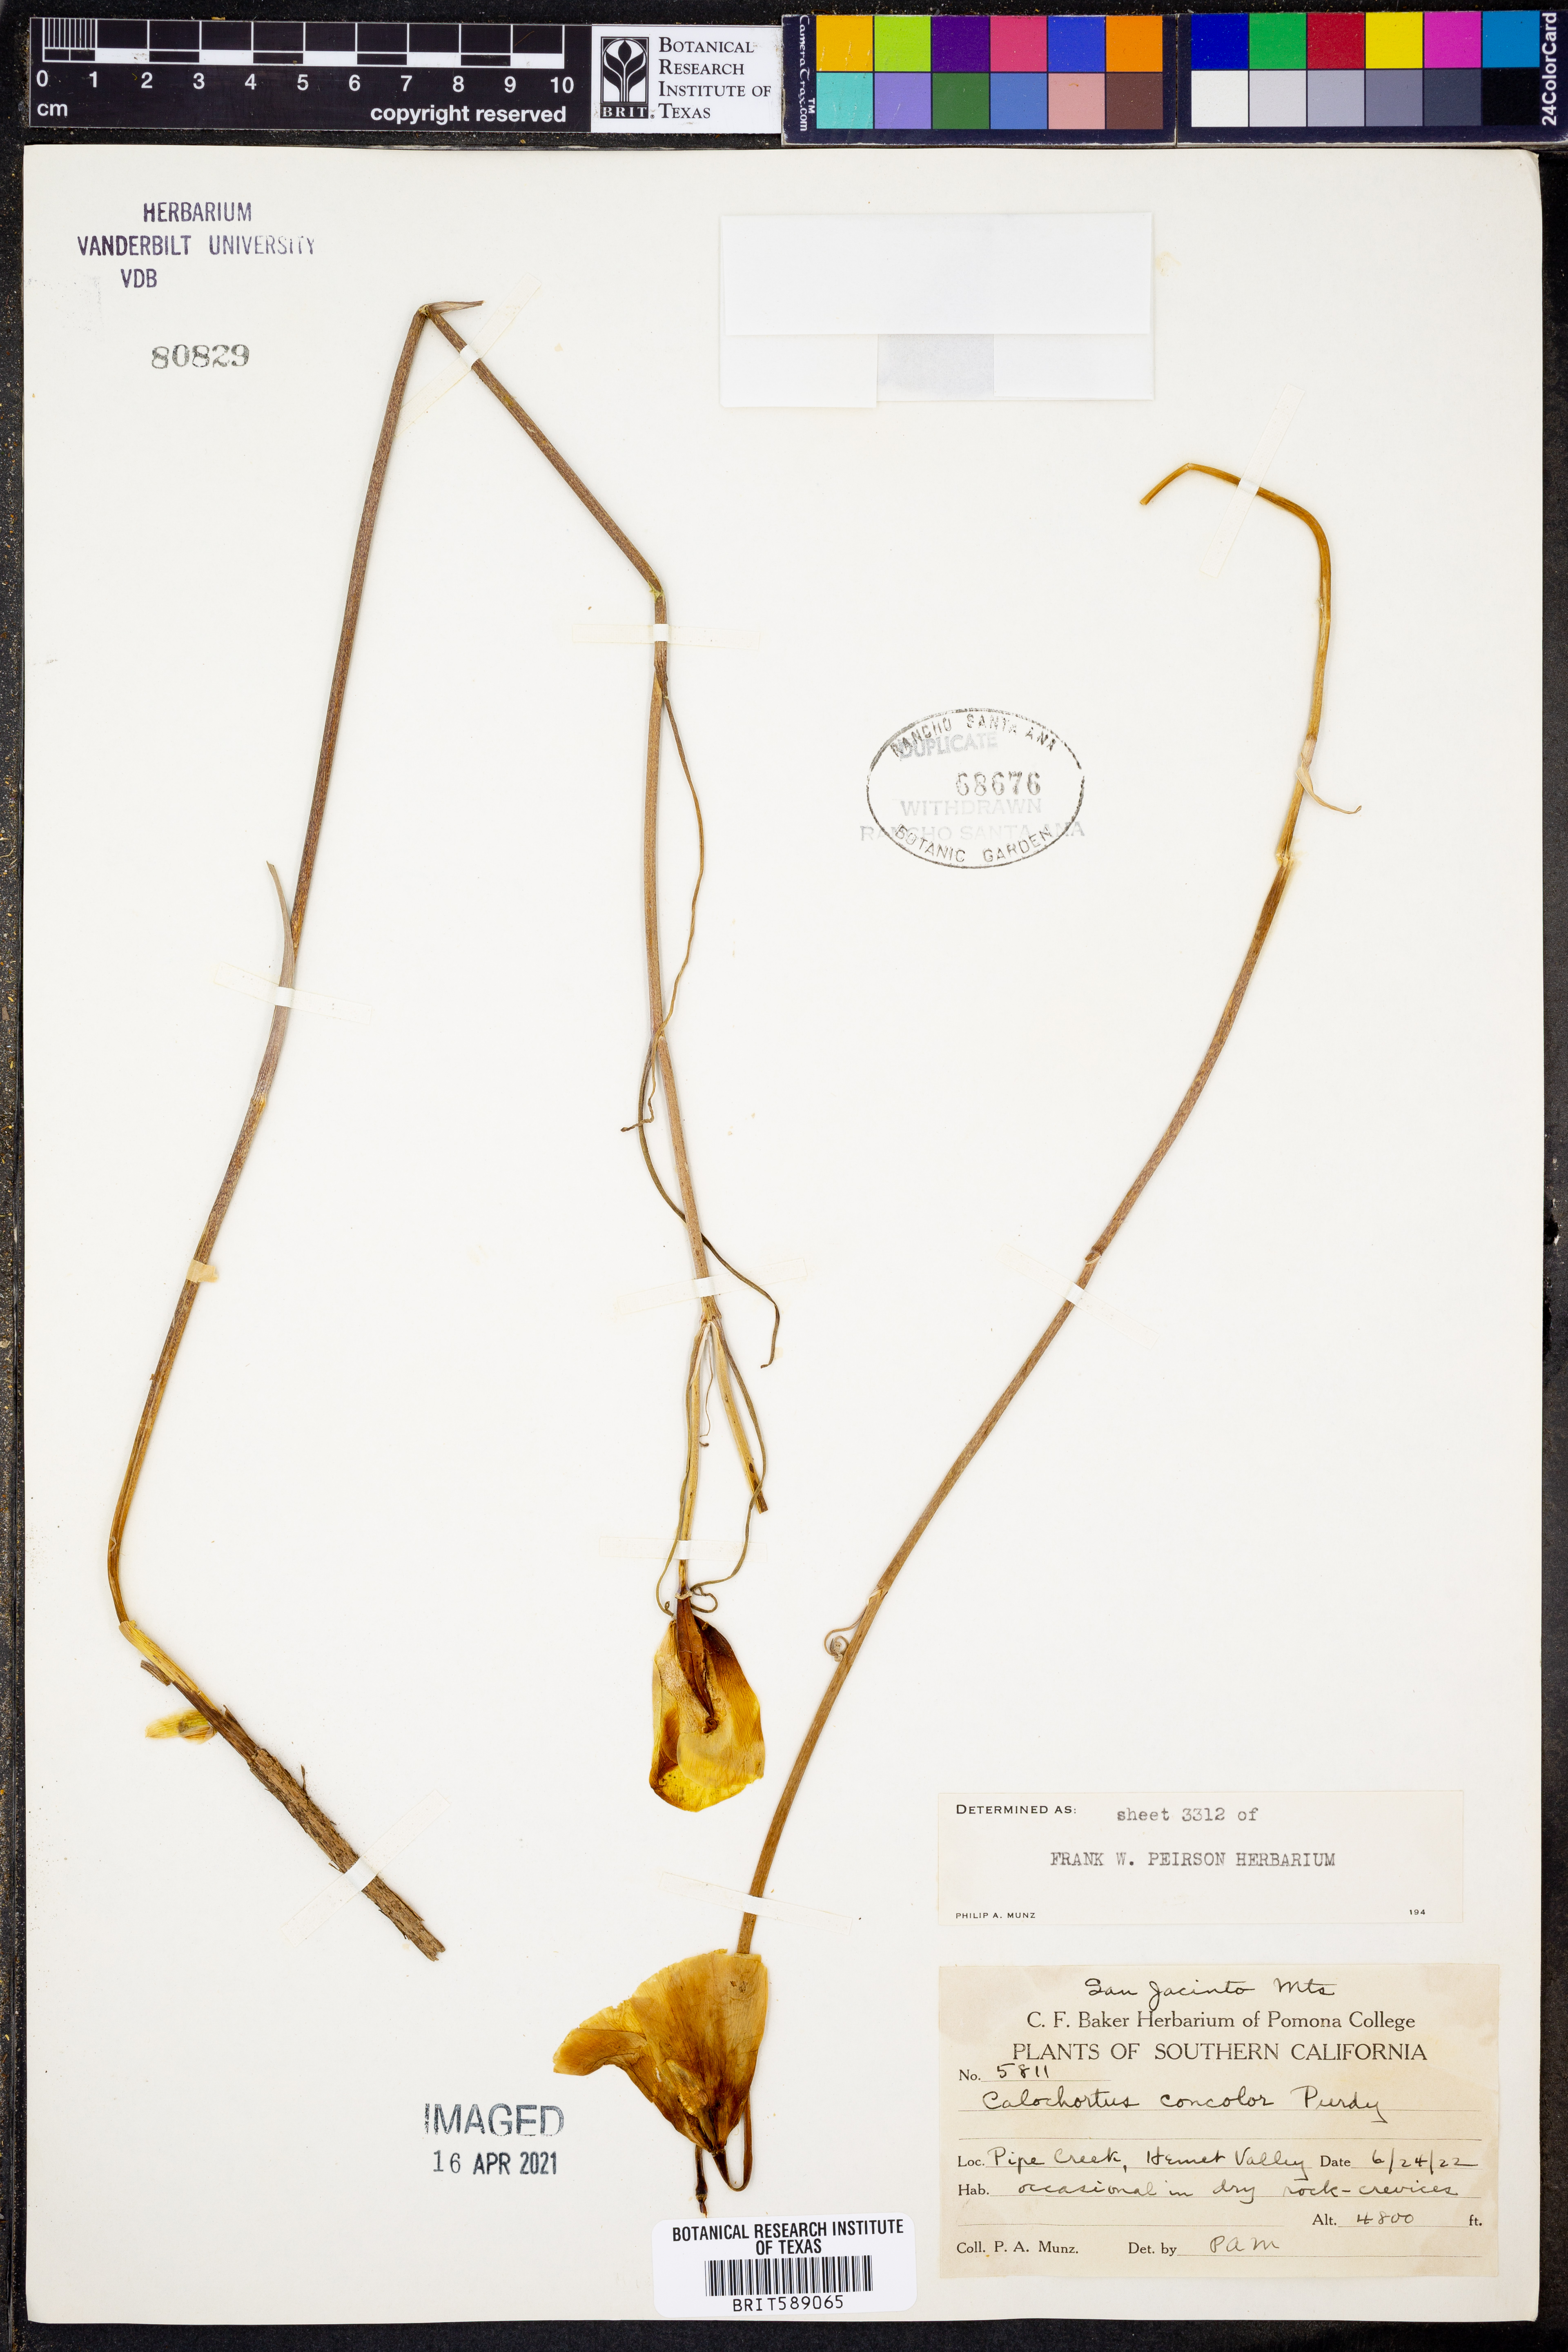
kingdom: Plantae
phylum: Tracheophyta
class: Liliopsida
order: Liliales
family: Liliaceae
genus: Calochortus
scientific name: Calochortus concolor
